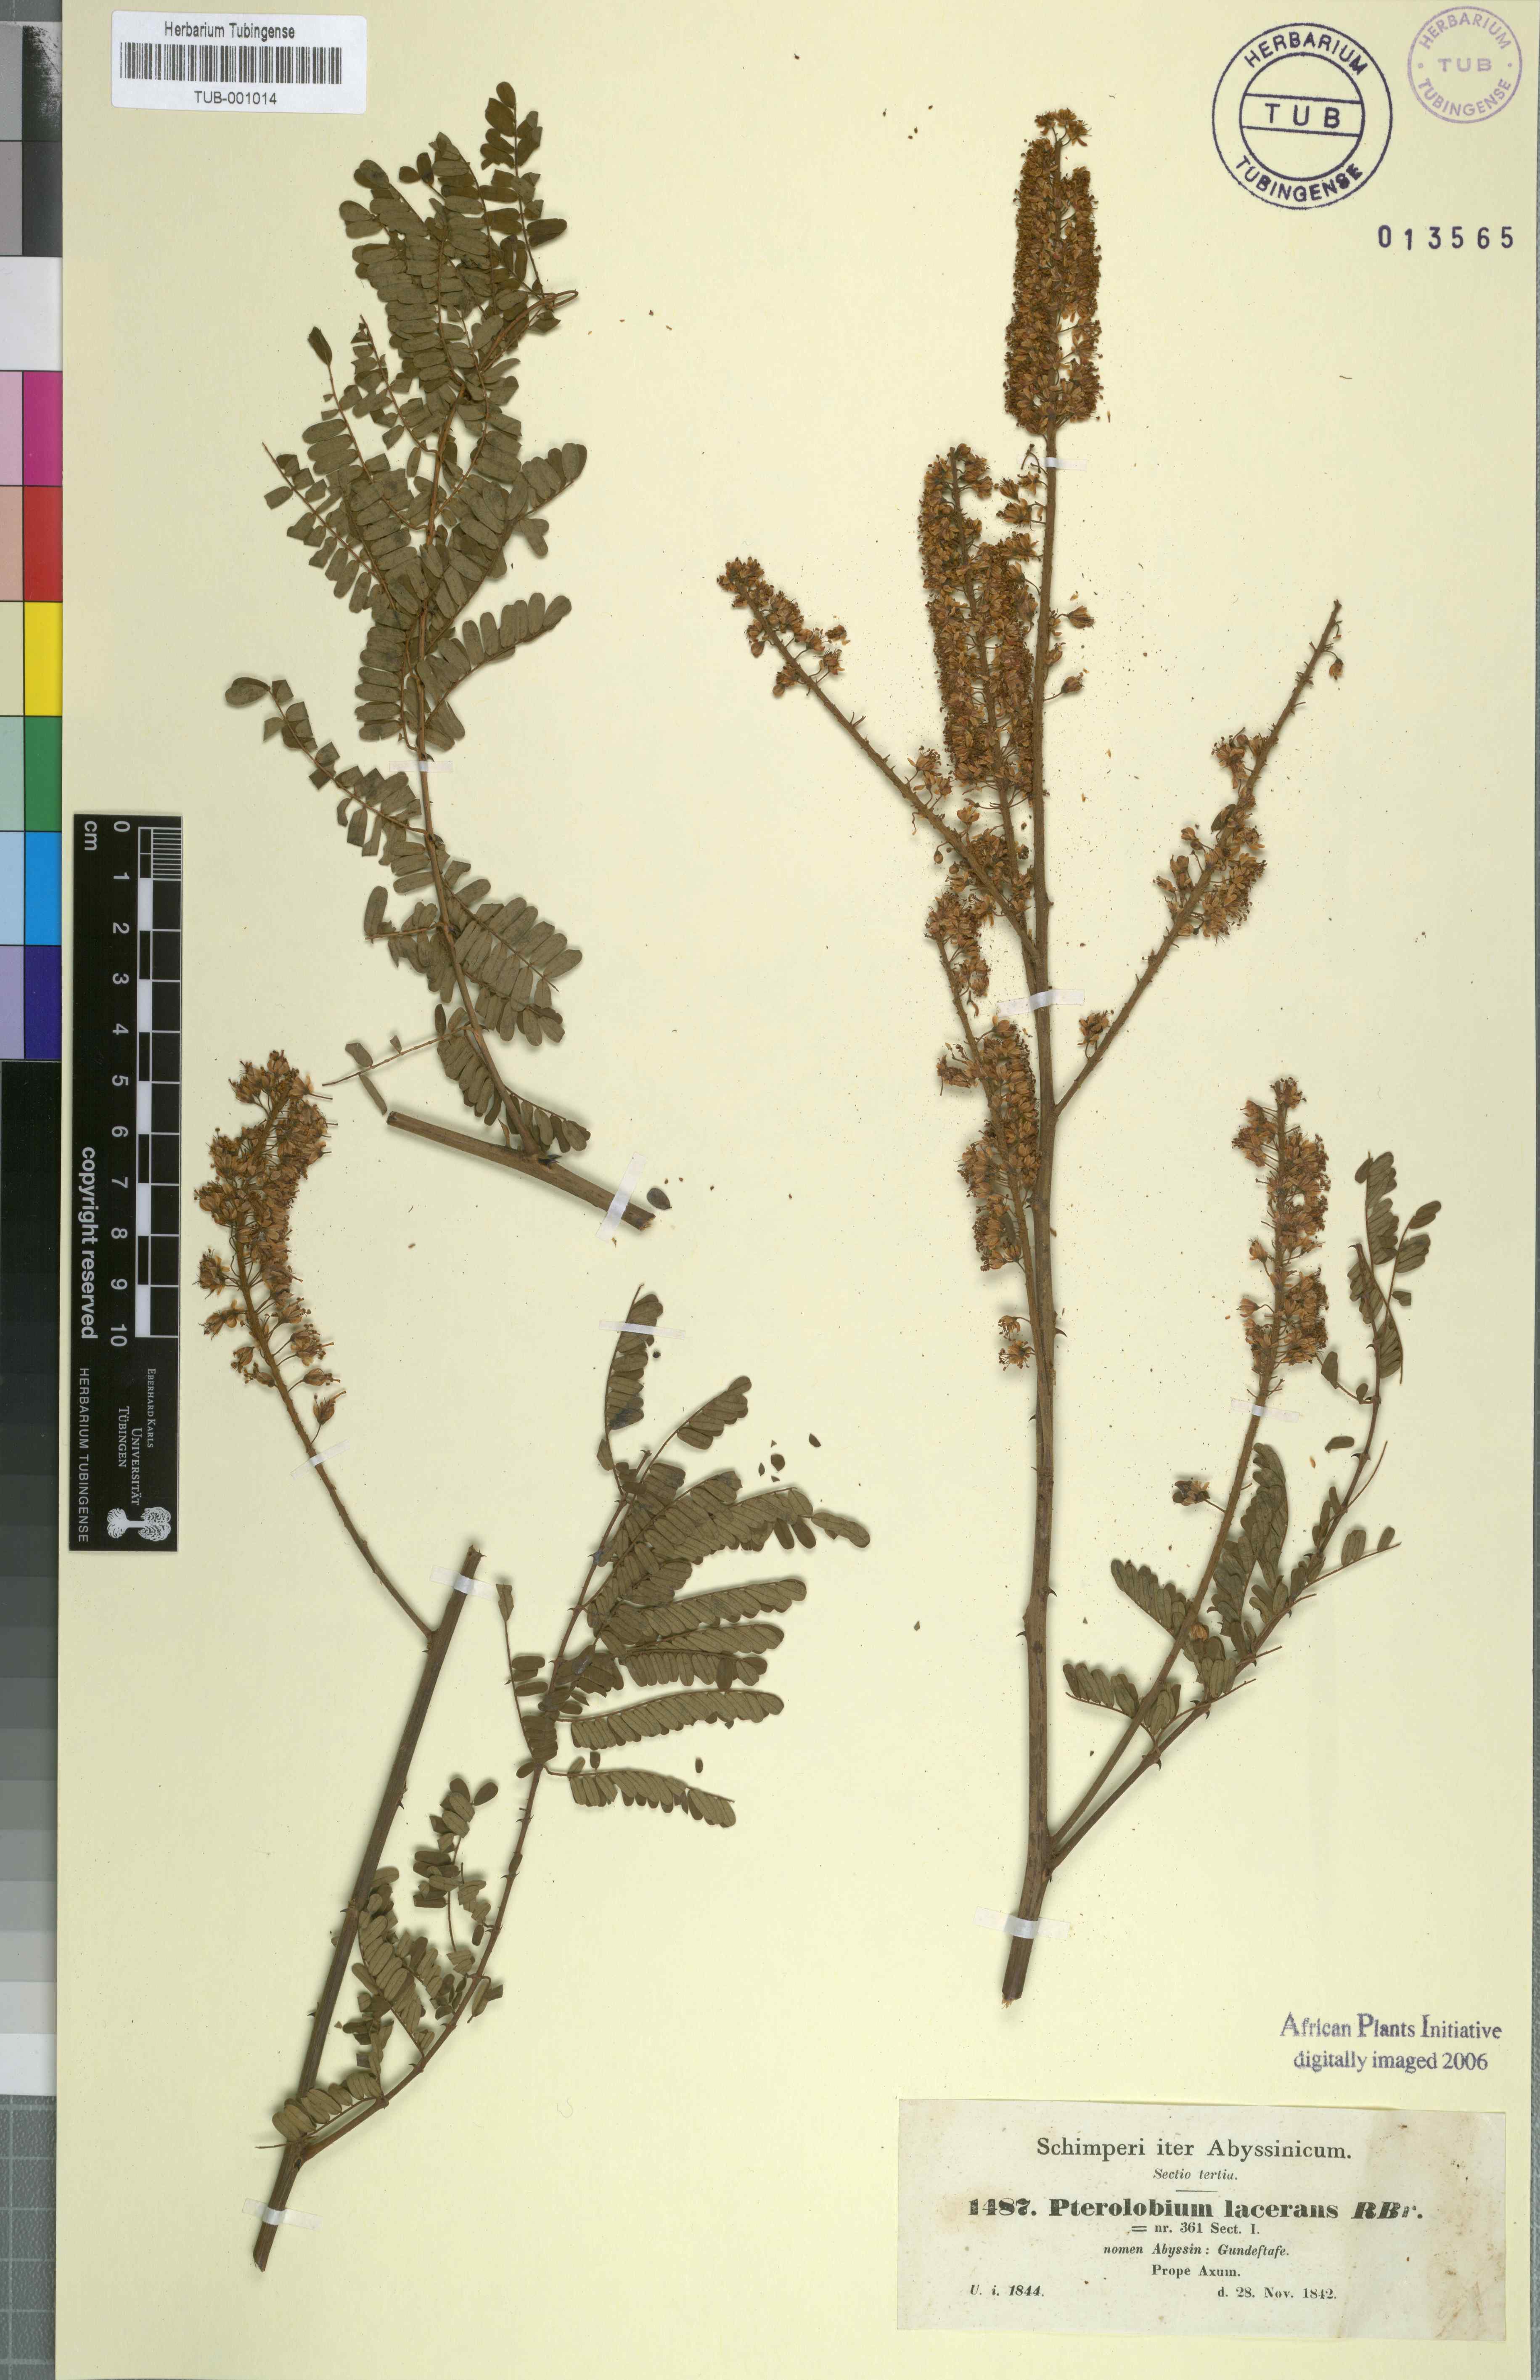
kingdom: Plantae
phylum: Tracheophyta
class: Magnoliopsida
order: Fabales
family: Fabaceae
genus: Pterolobium
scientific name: Pterolobium stellatum
